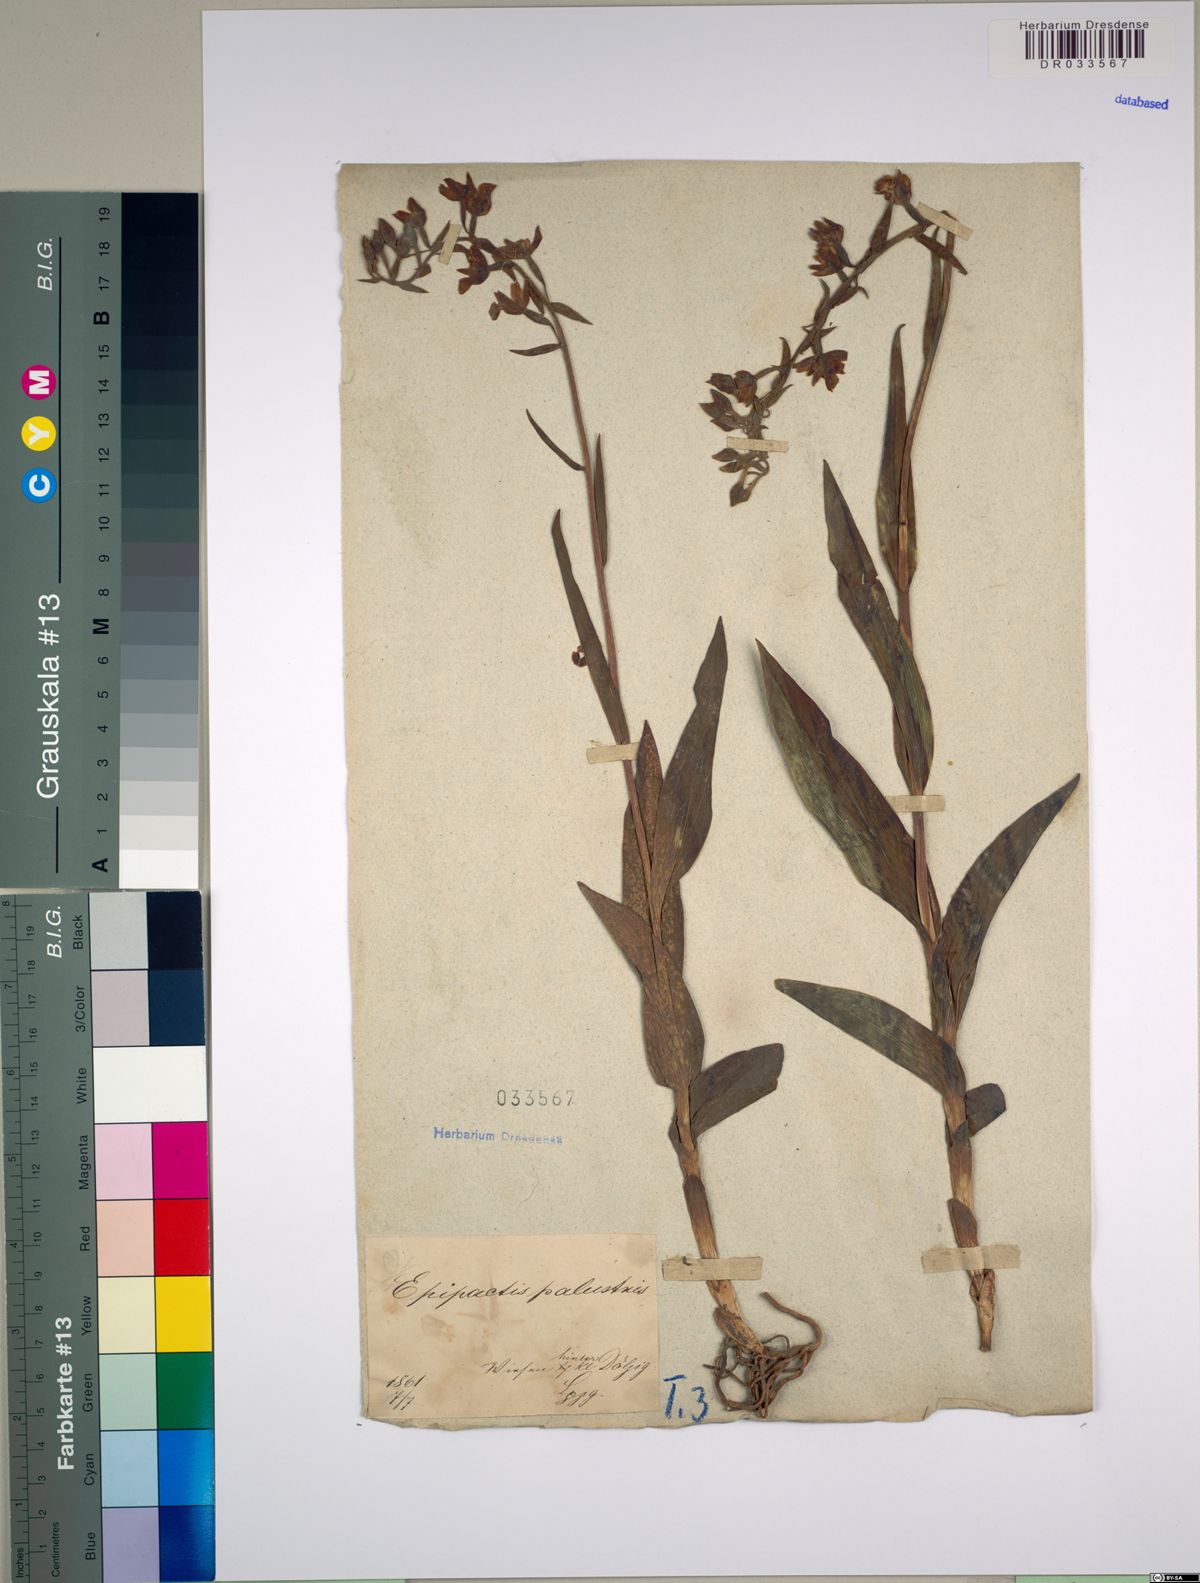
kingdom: Plantae
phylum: Tracheophyta
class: Liliopsida
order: Asparagales
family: Orchidaceae
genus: Epipactis
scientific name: Epipactis palustris
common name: Marsh helleborine
